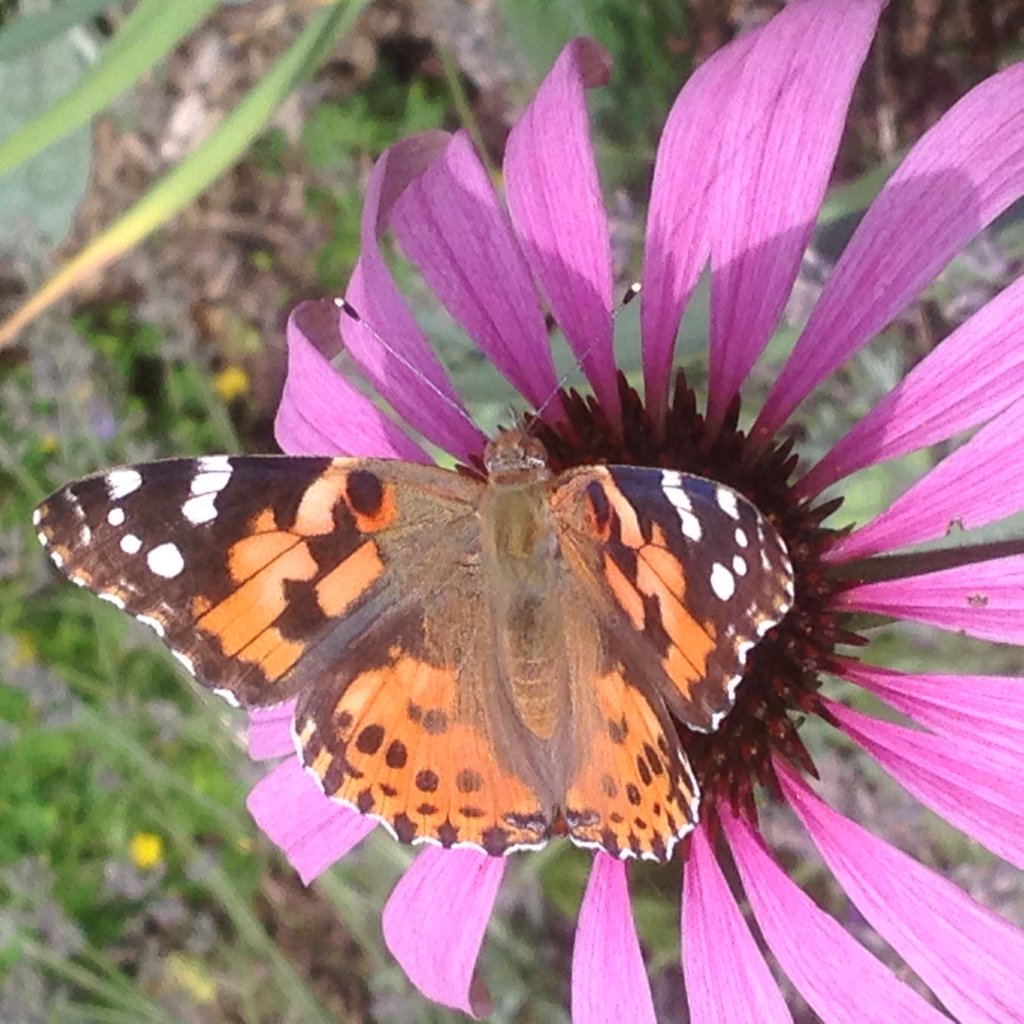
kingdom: Animalia
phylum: Arthropoda
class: Insecta
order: Lepidoptera
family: Nymphalidae
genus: Vanessa
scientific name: Vanessa cardui
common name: Painted Lady
